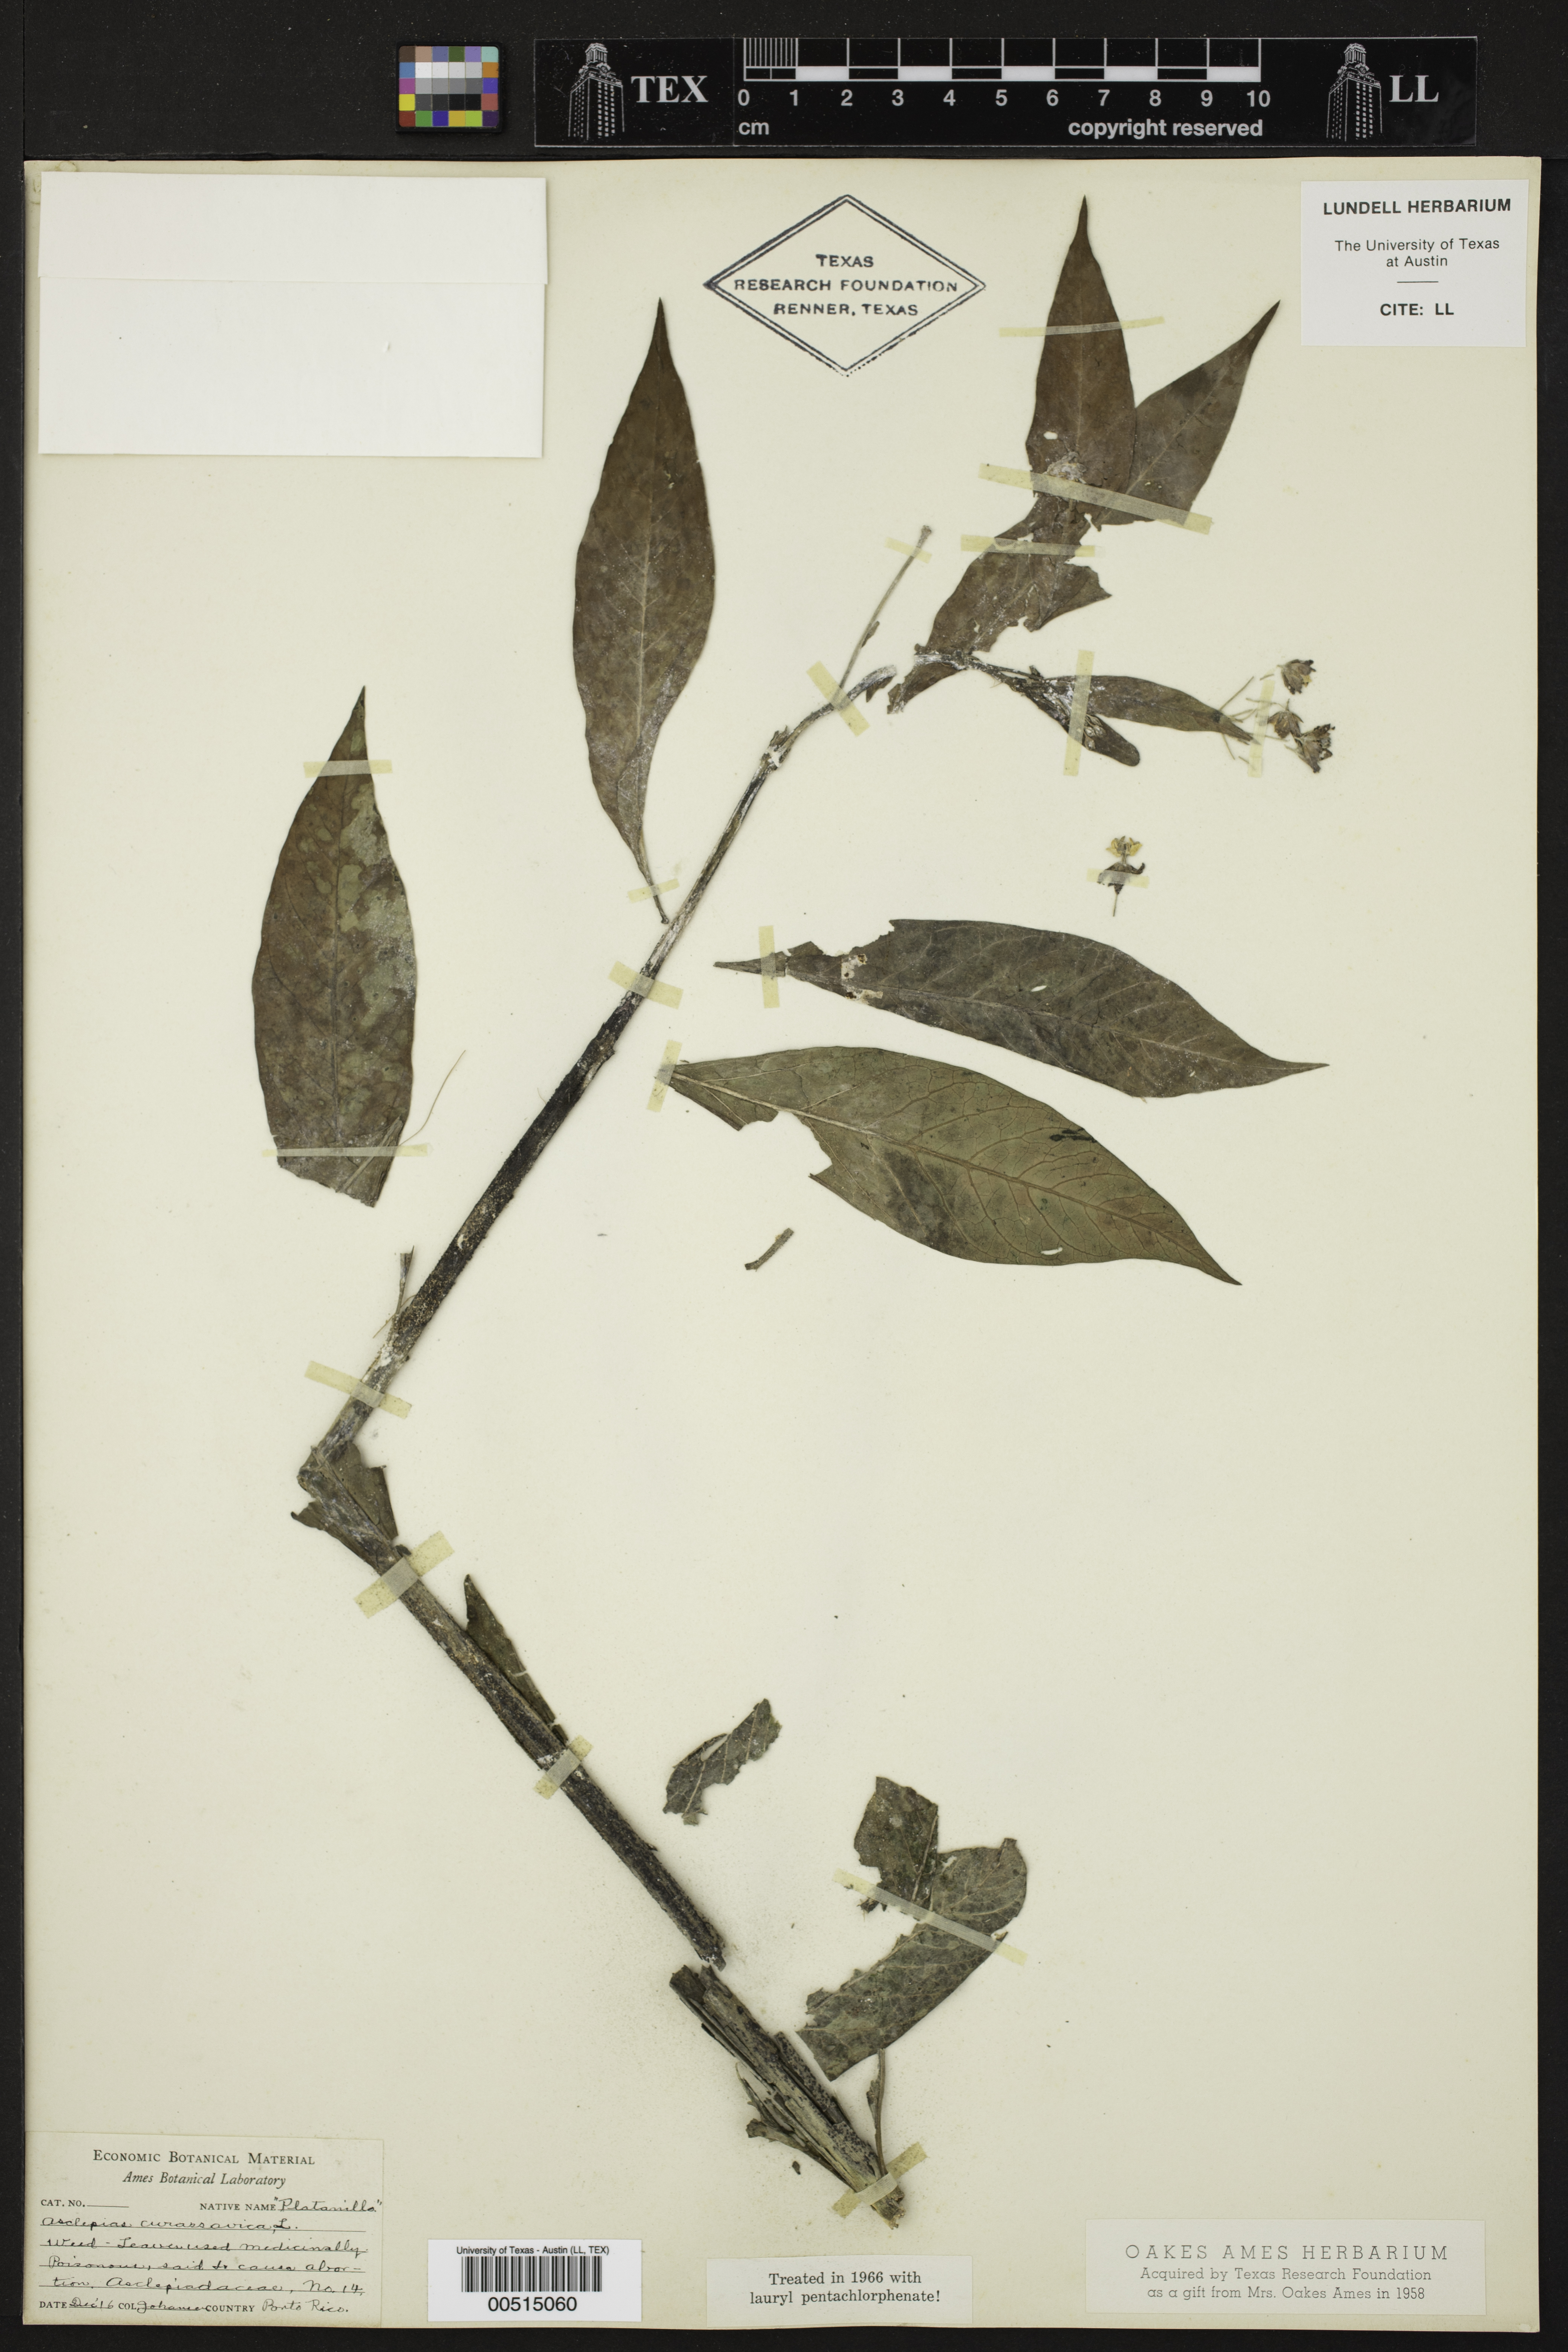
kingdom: Plantae
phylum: Tracheophyta
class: Magnoliopsida
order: Gentianales
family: Apocynaceae
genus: Asclepias
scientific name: Asclepias curassavica
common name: Bloodflower
